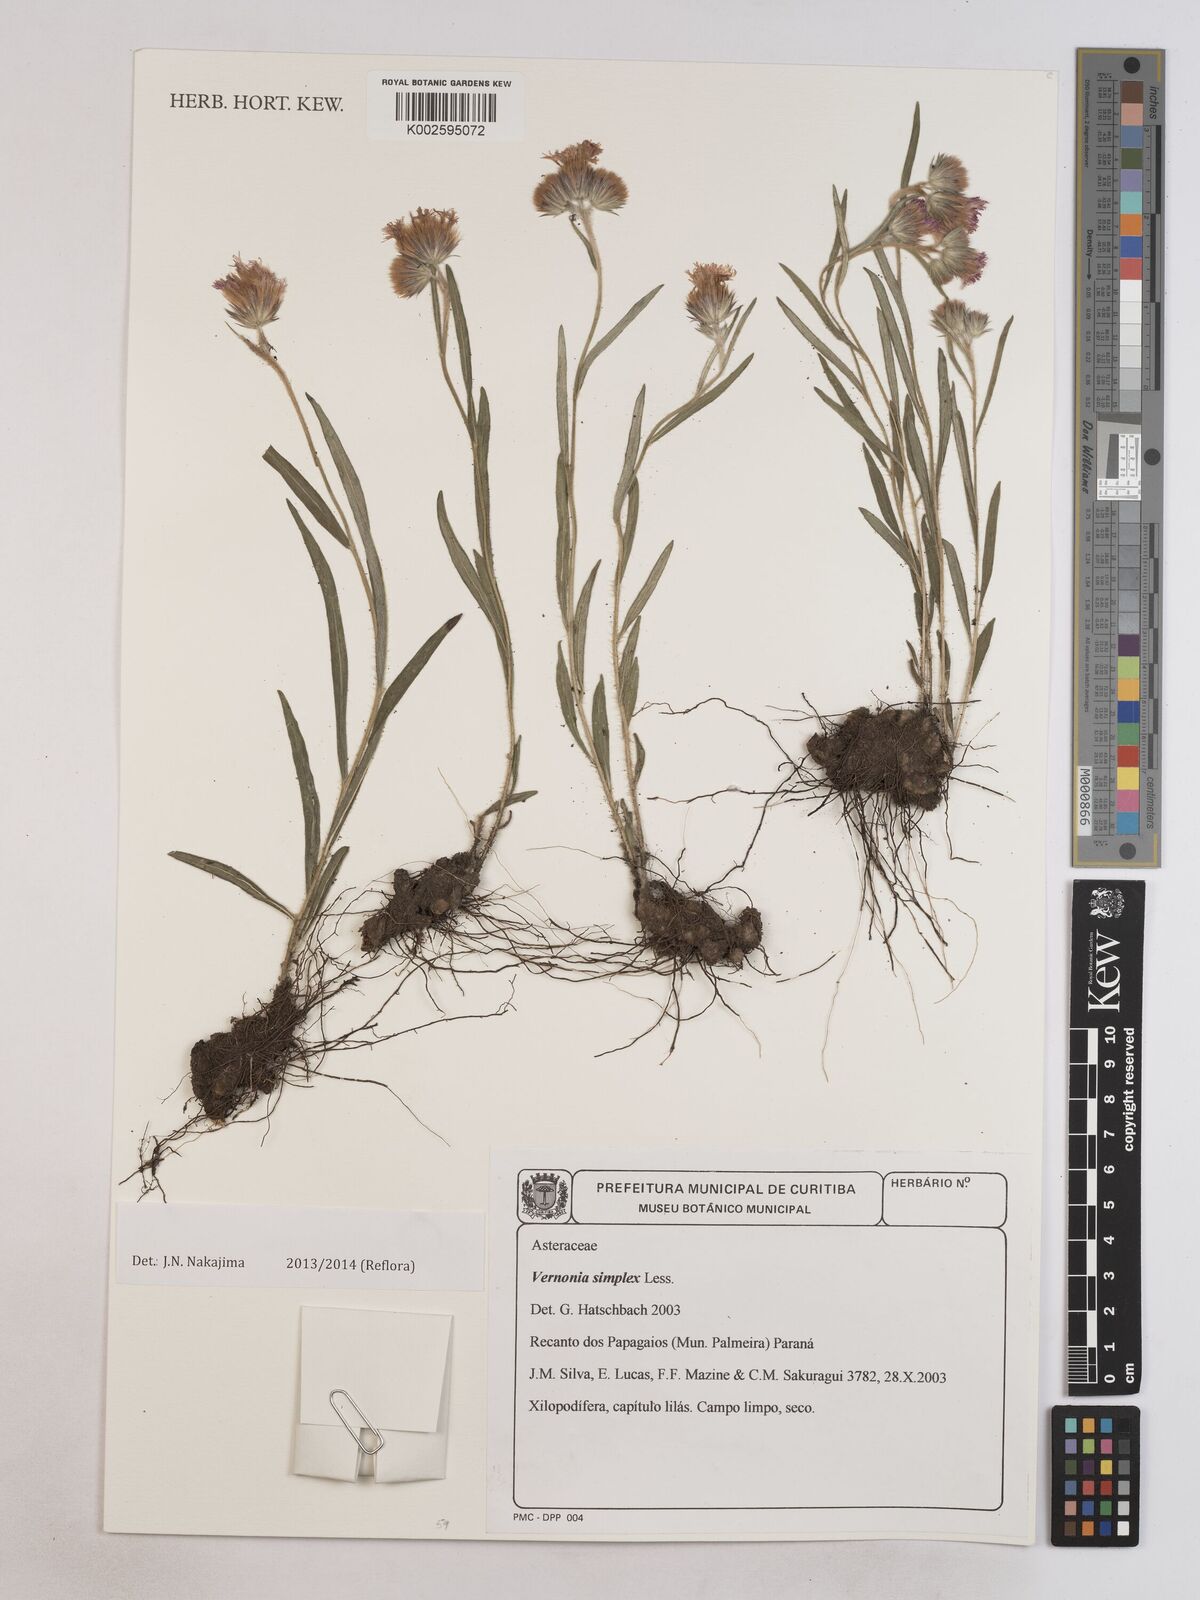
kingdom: Plantae
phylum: Tracheophyta
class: Magnoliopsida
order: Asterales
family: Asteraceae
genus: Chrysolaena
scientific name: Chrysolaena simplex
